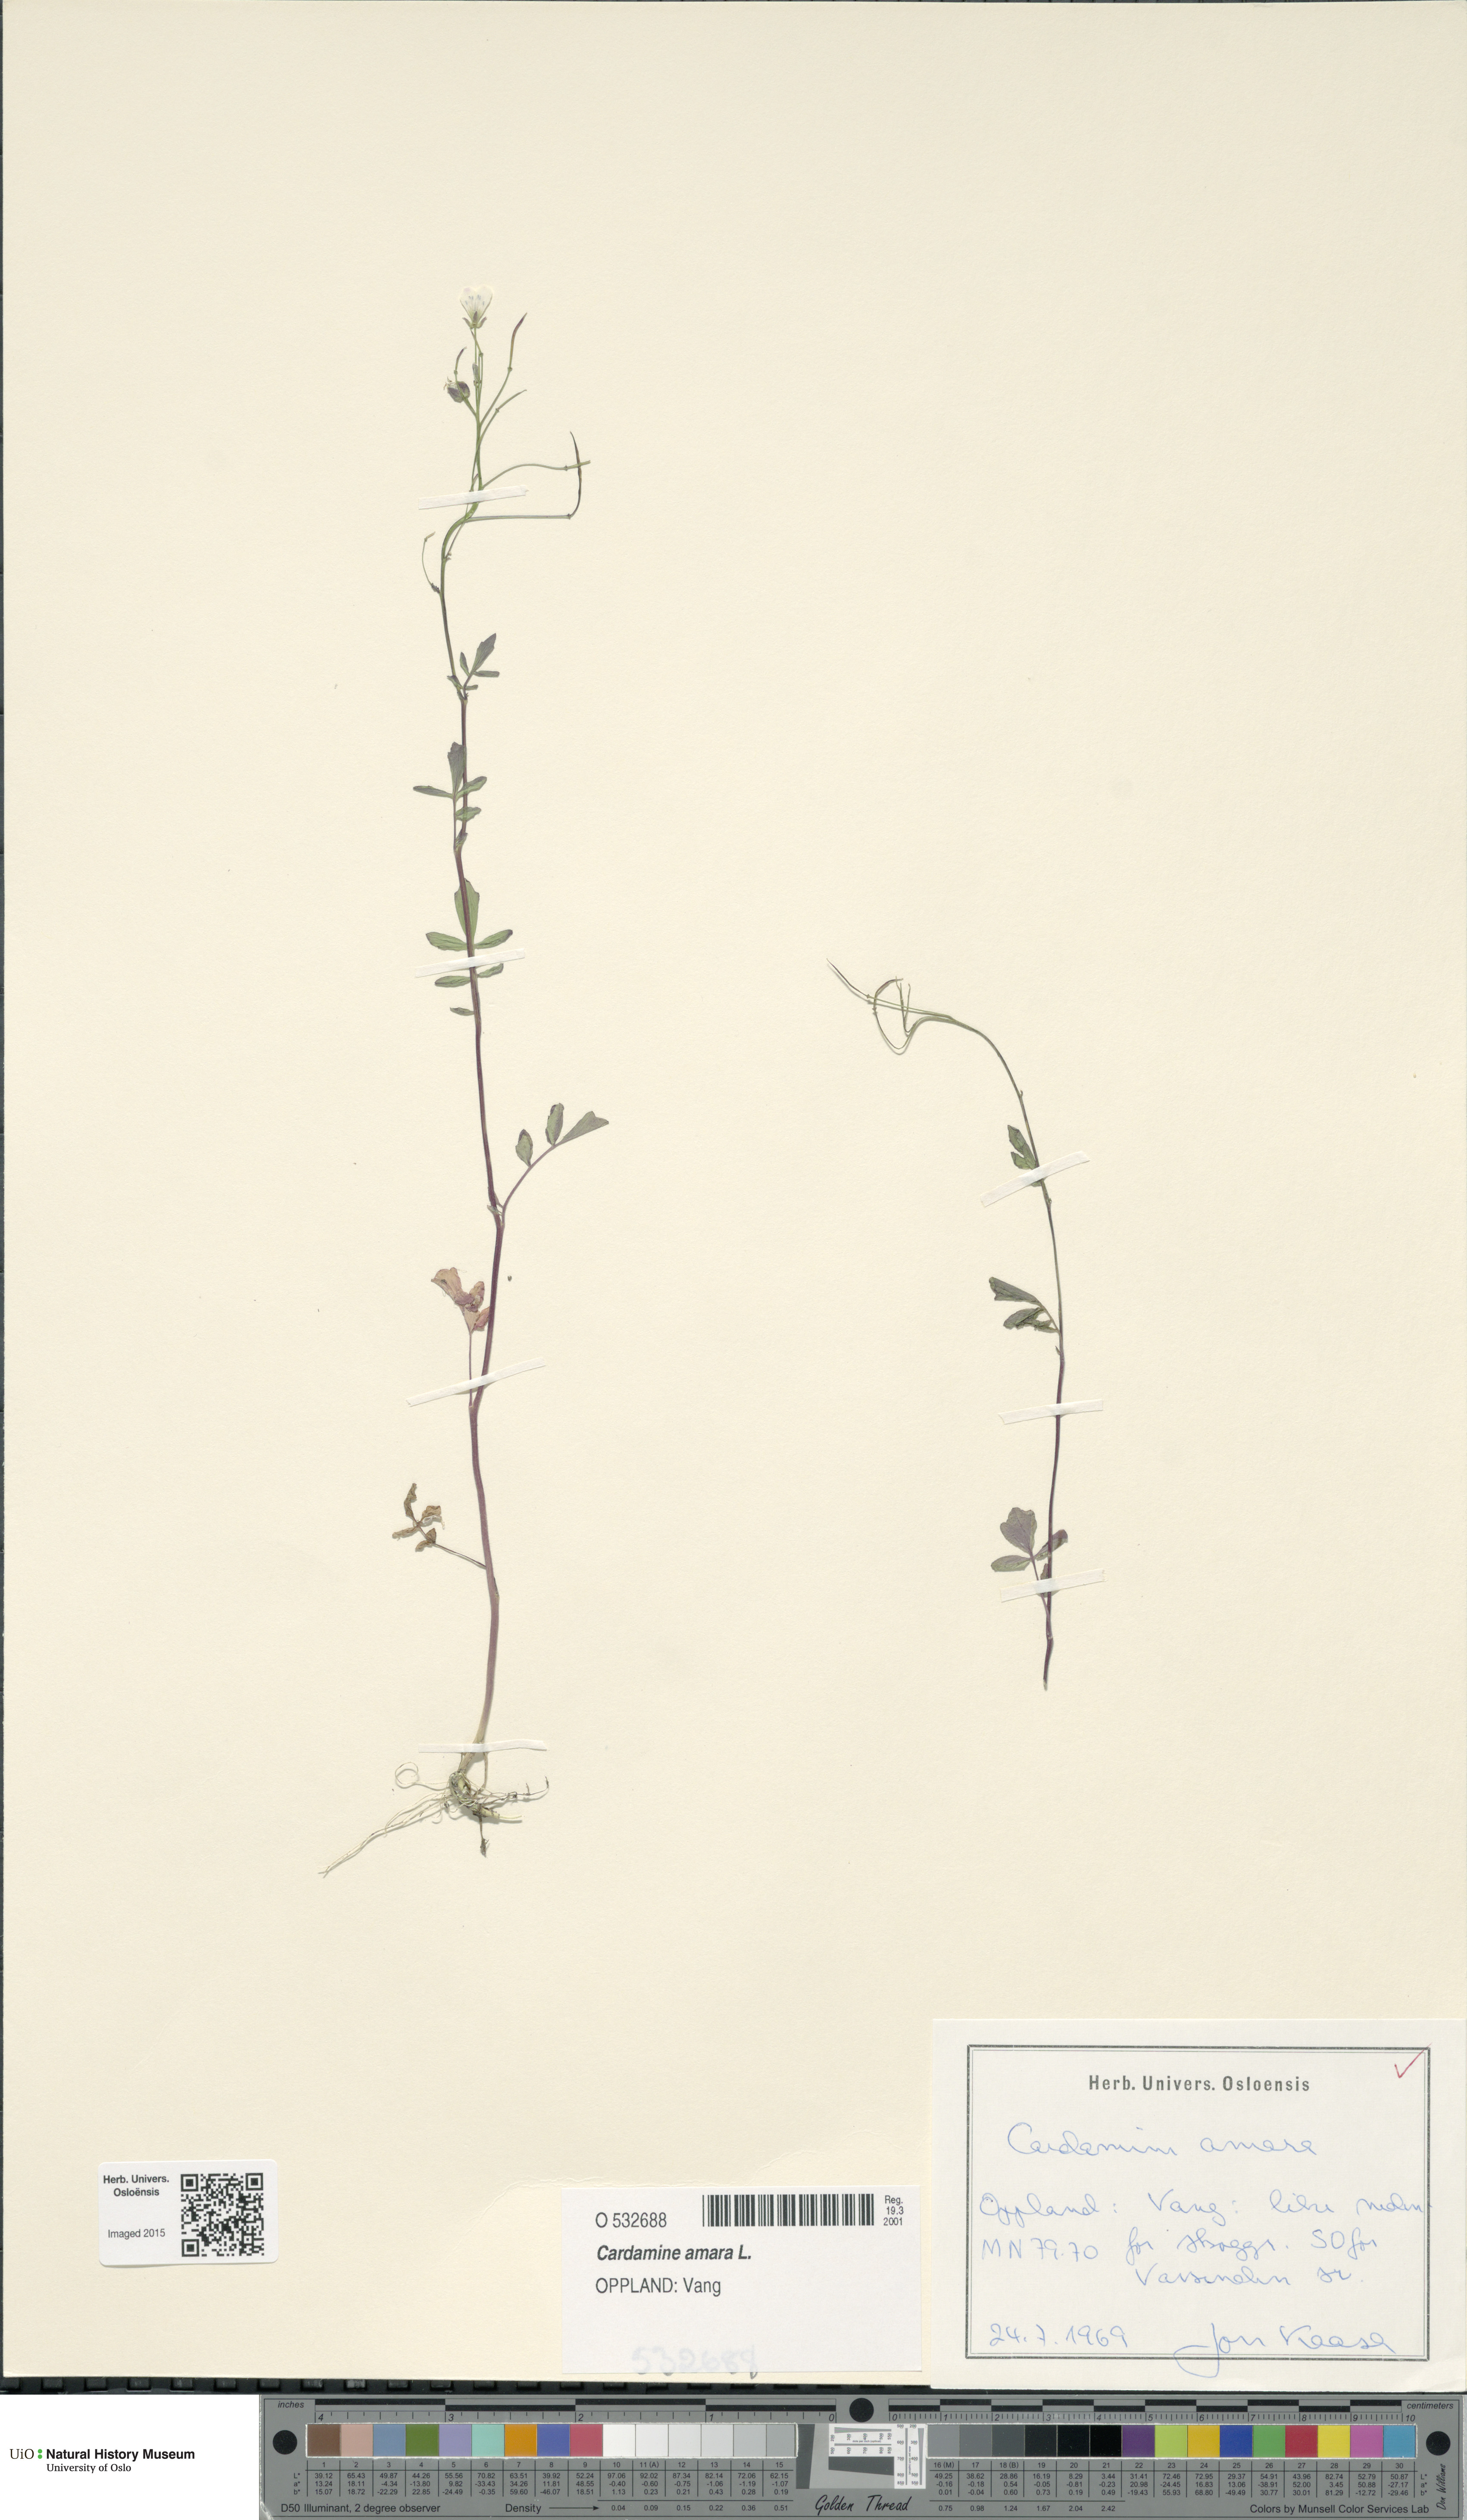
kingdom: Plantae
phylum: Tracheophyta
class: Magnoliopsida
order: Brassicales
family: Brassicaceae
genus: Cardamine
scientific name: Cardamine amara
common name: Large bitter-cress
